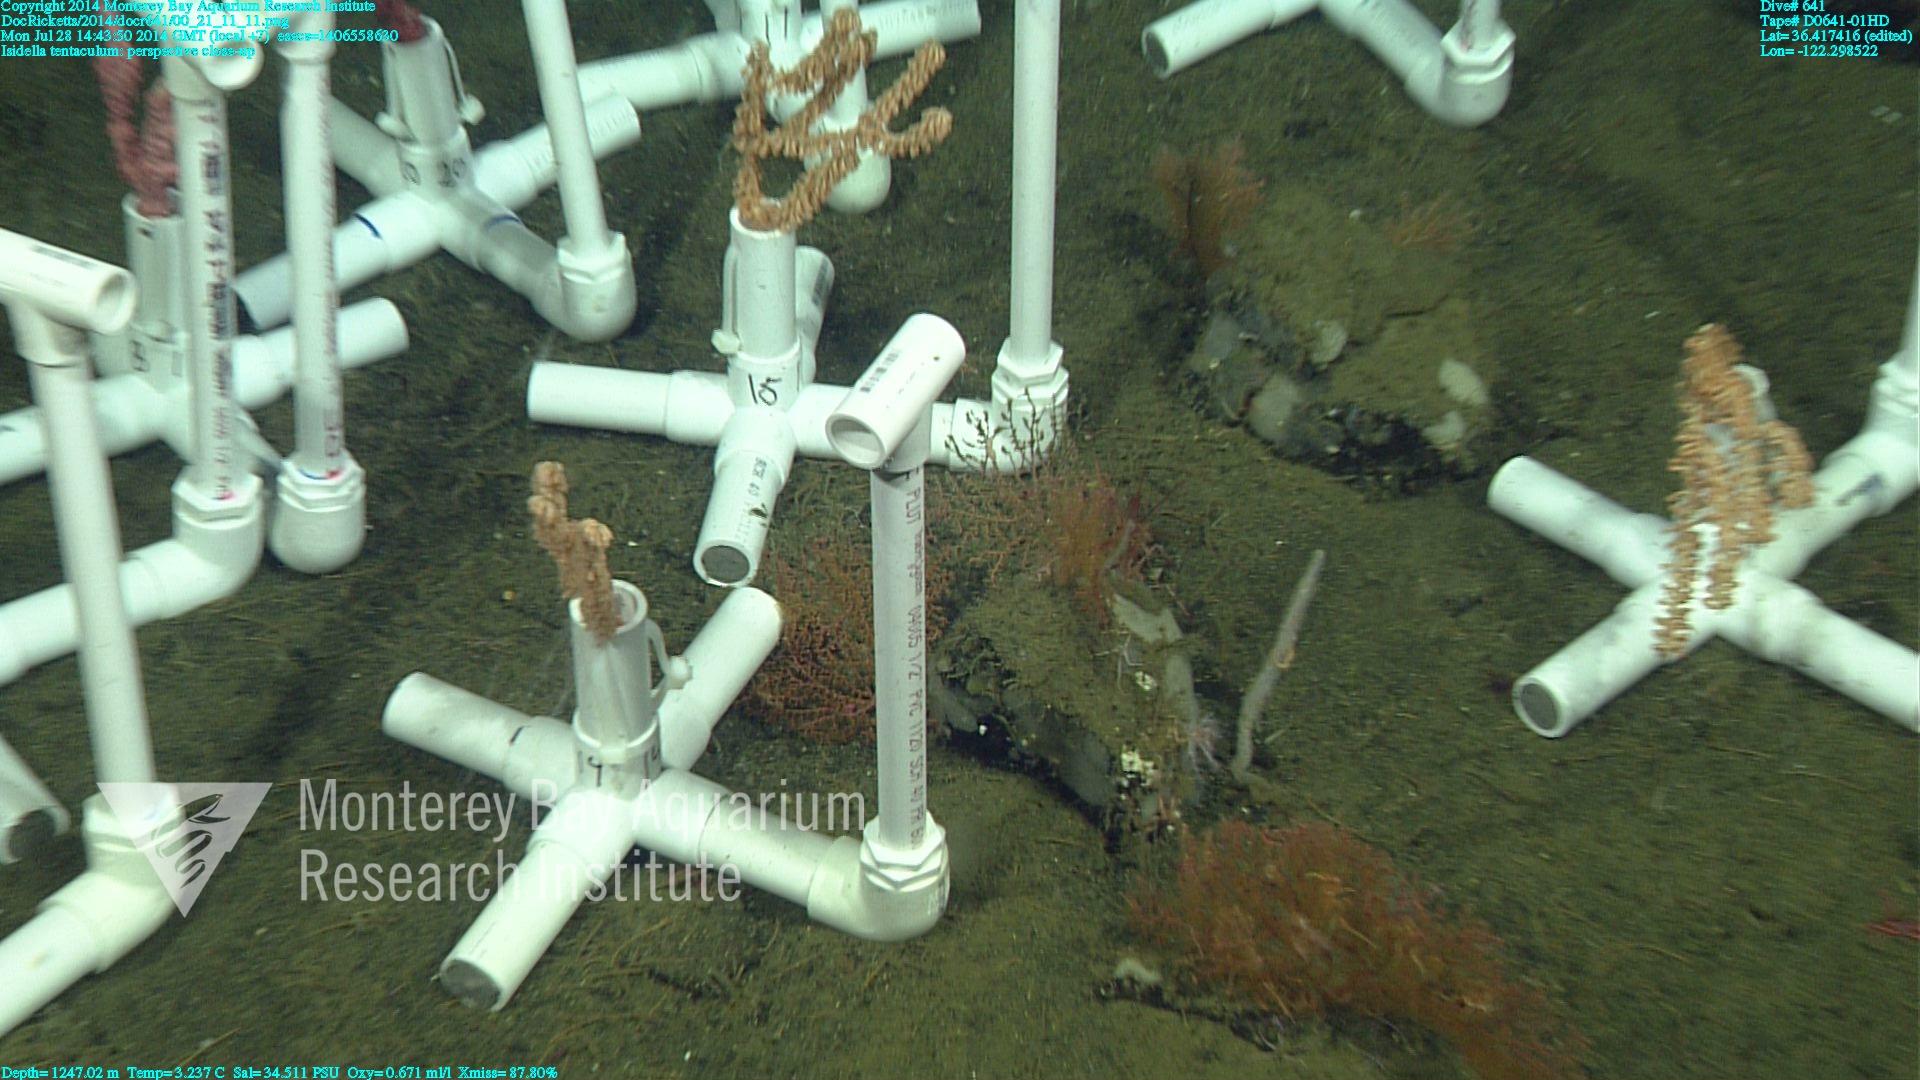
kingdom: Animalia
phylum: Cnidaria
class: Anthozoa
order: Scleralcyonacea
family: Keratoisididae
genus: Isidella
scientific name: Isidella tentaculum
